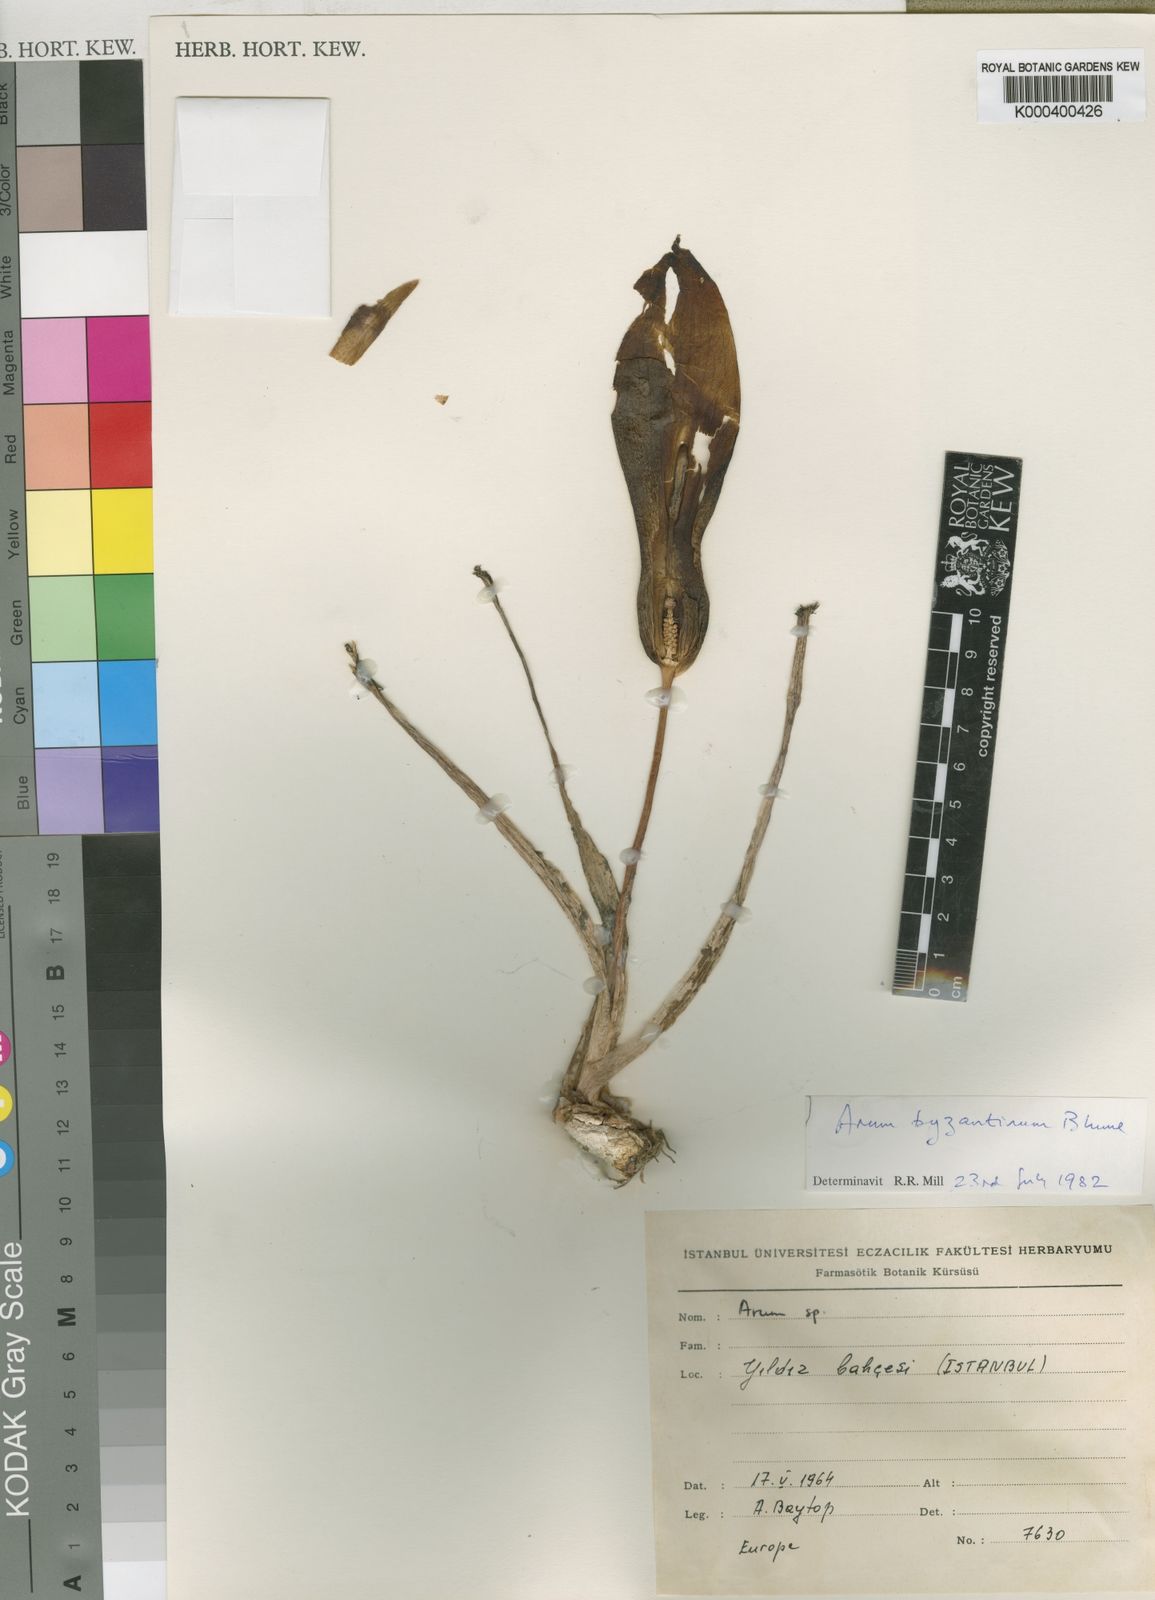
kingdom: Plantae
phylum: Tracheophyta
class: Liliopsida
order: Alismatales
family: Araceae
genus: Arum
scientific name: Arum maculatum
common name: Lords-and-ladies
